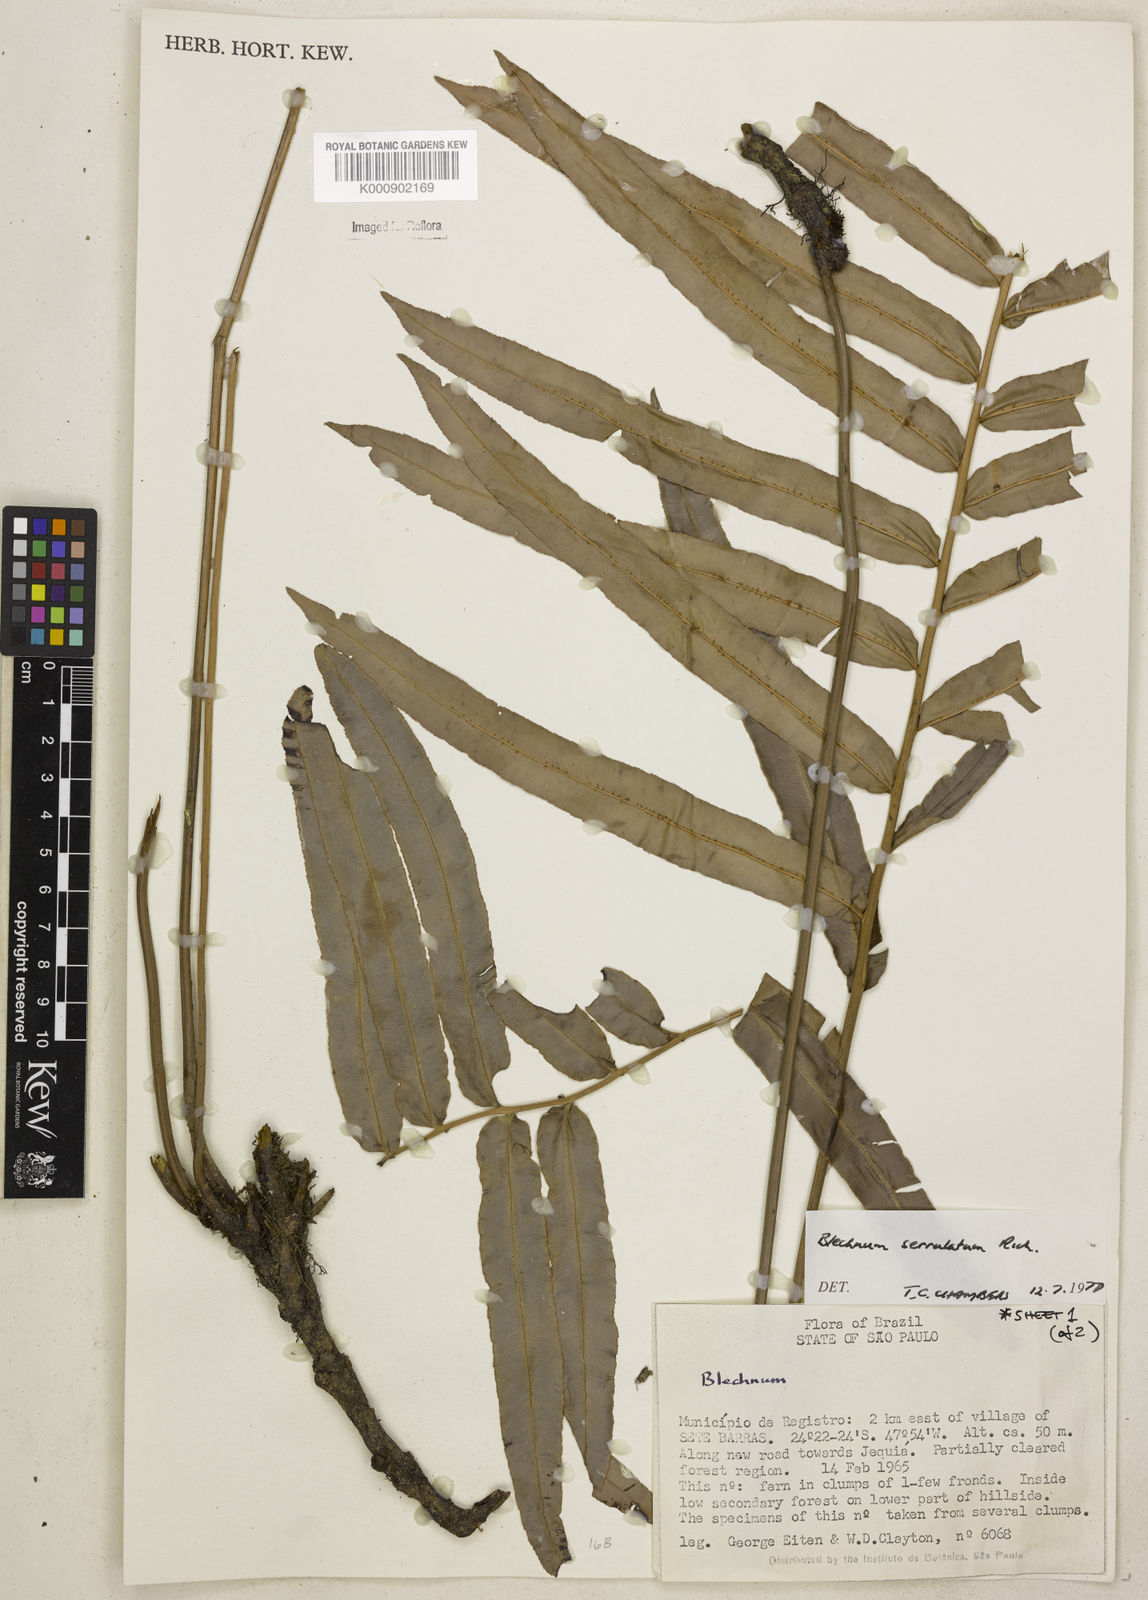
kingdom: Plantae
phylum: Tracheophyta
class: Polypodiopsida
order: Polypodiales
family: Blechnaceae
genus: Telmatoblechnum
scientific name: Telmatoblechnum serrulatum
